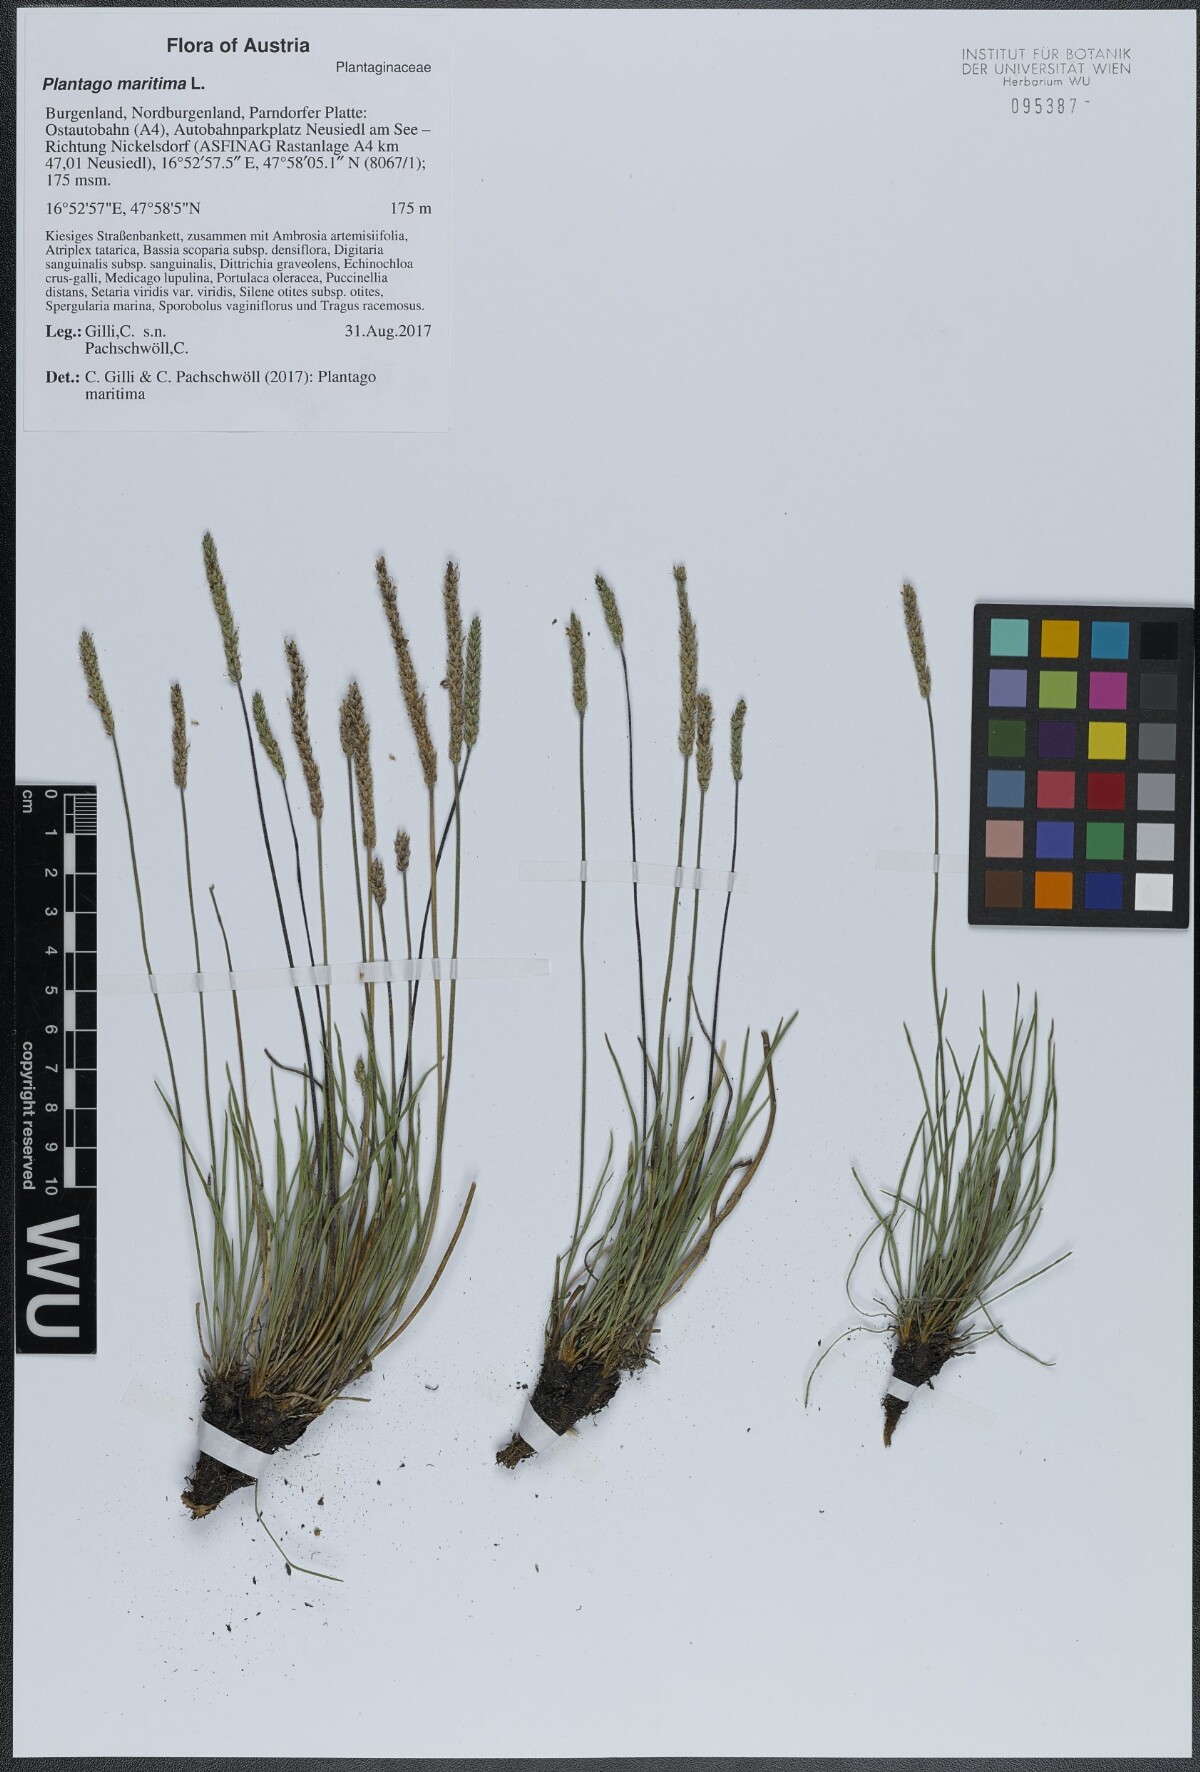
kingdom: Plantae
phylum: Tracheophyta
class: Magnoliopsida
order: Lamiales
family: Plantaginaceae
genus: Plantago
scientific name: Plantago maritima
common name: Sea plantain
